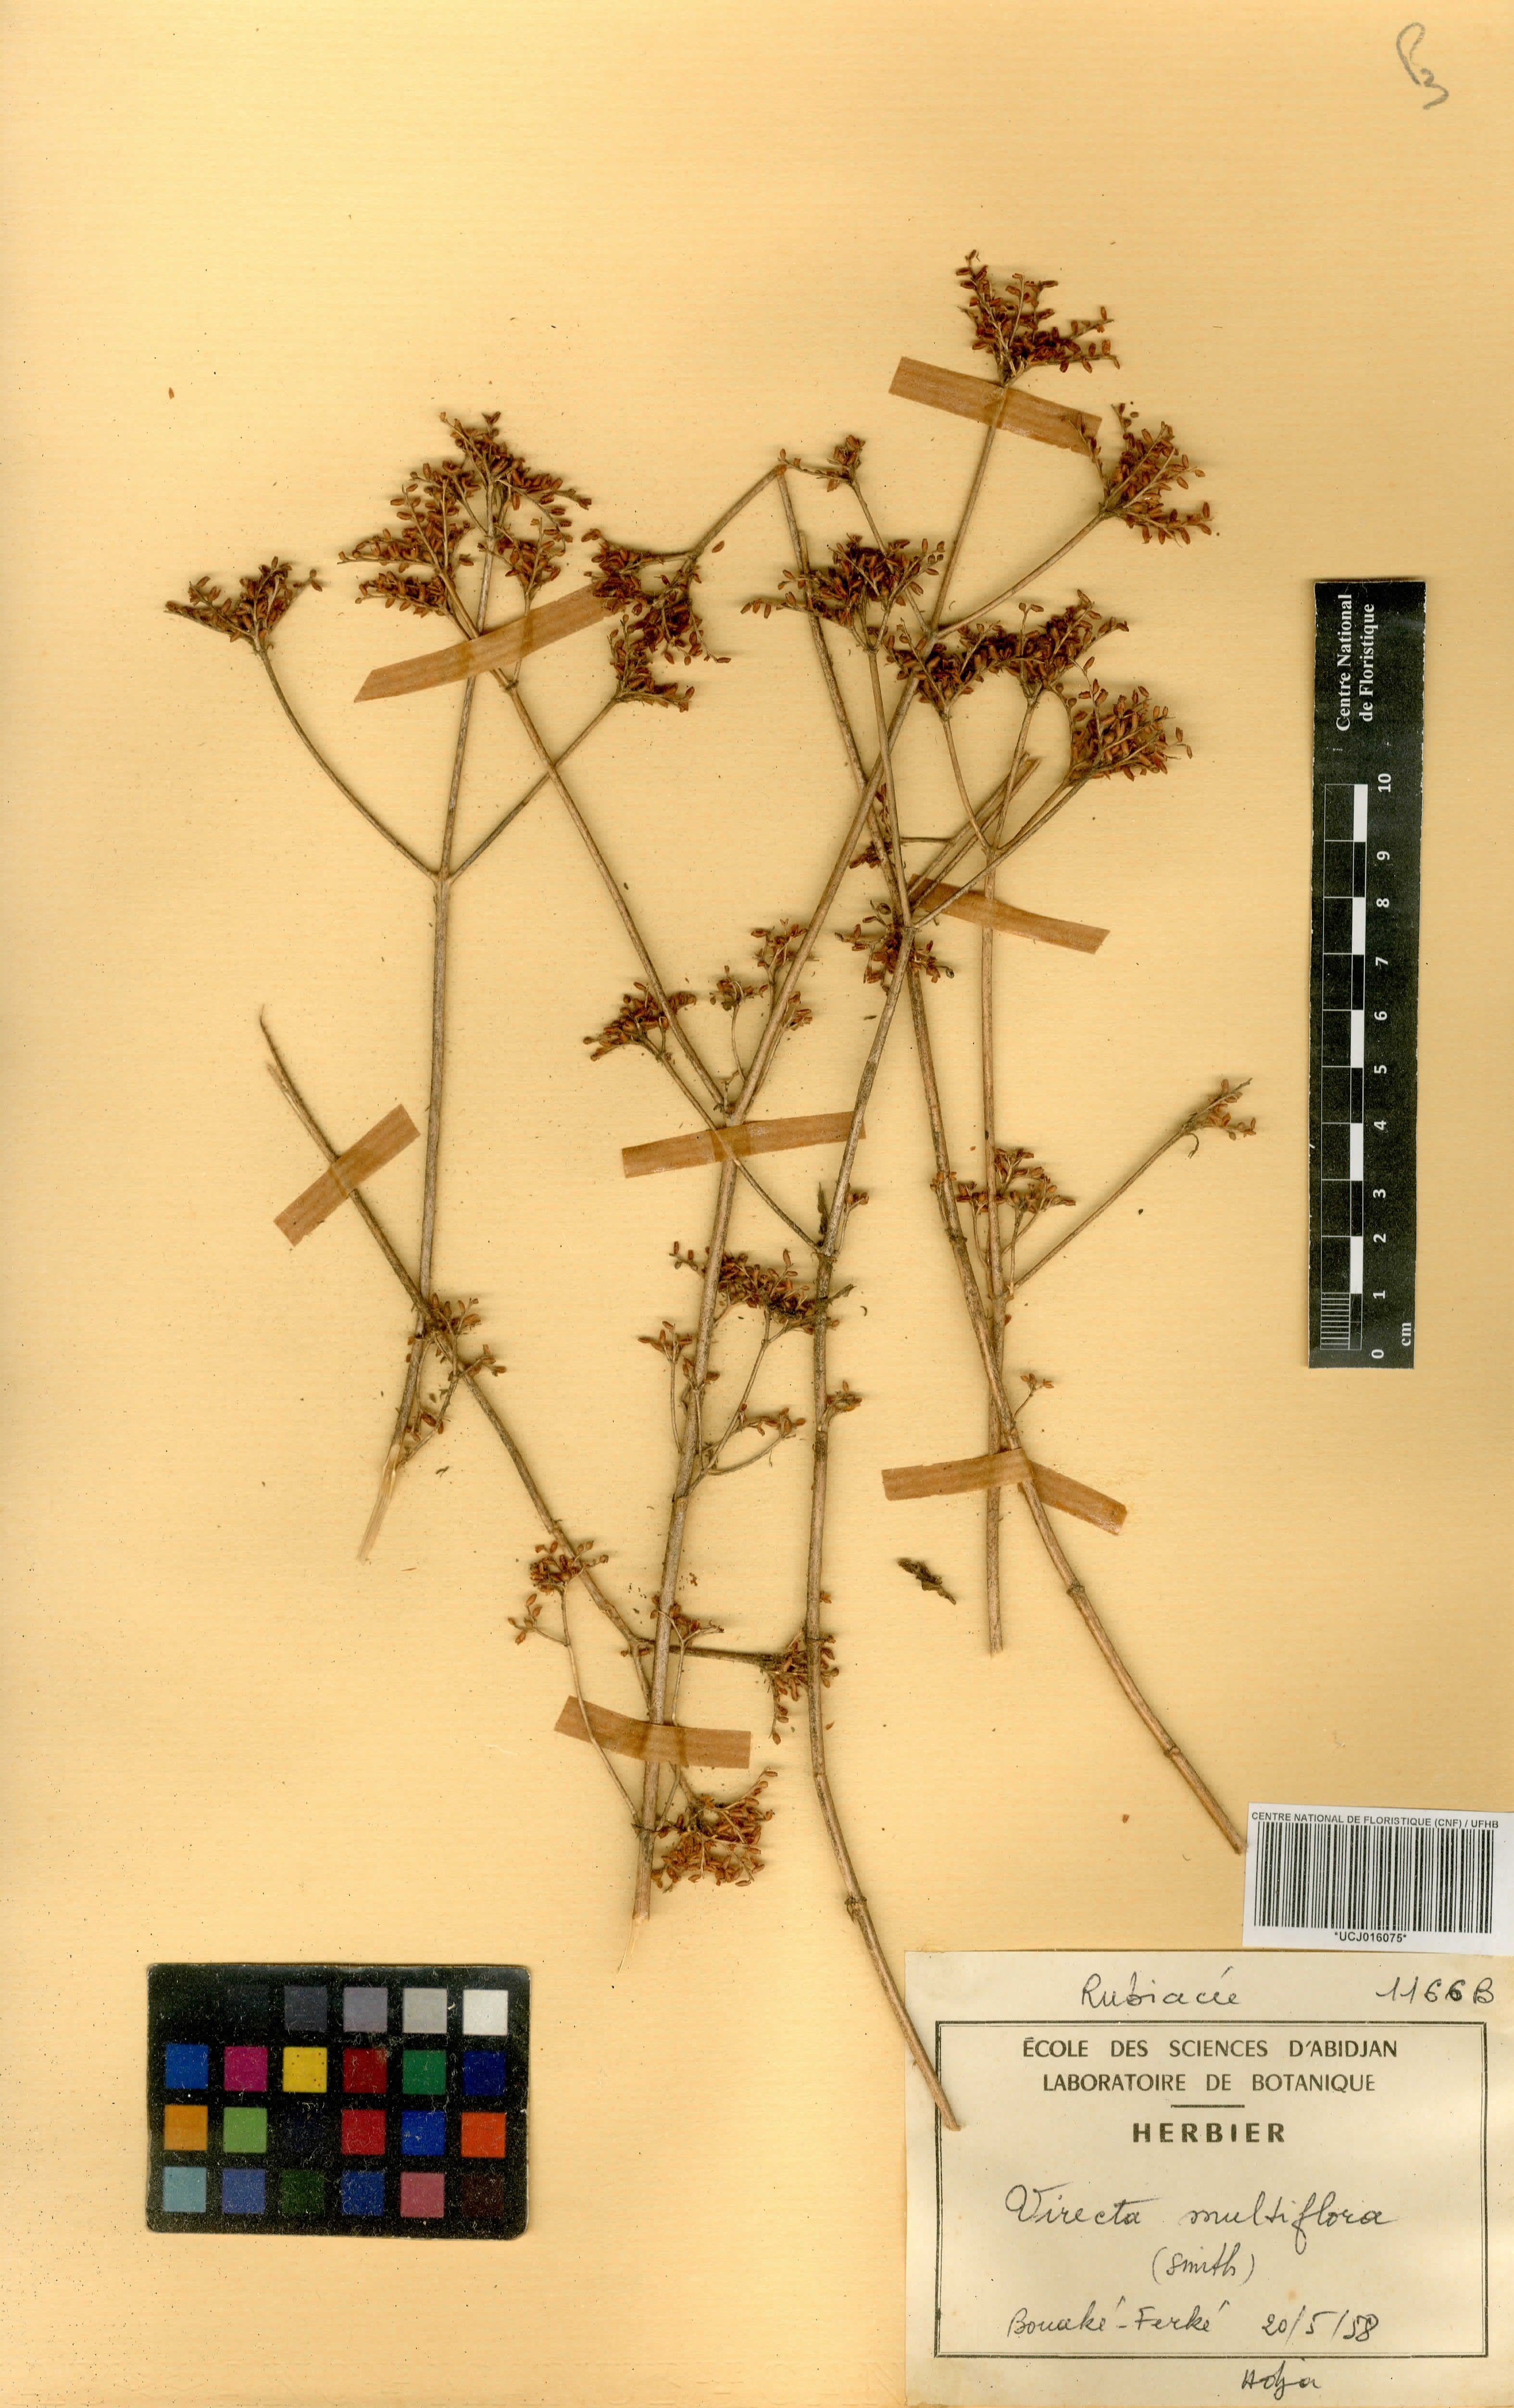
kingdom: Plantae
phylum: Tracheophyta
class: Magnoliopsida
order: Gentianales
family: Rubiaceae
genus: Virectaria
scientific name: Virectaria multiflora
